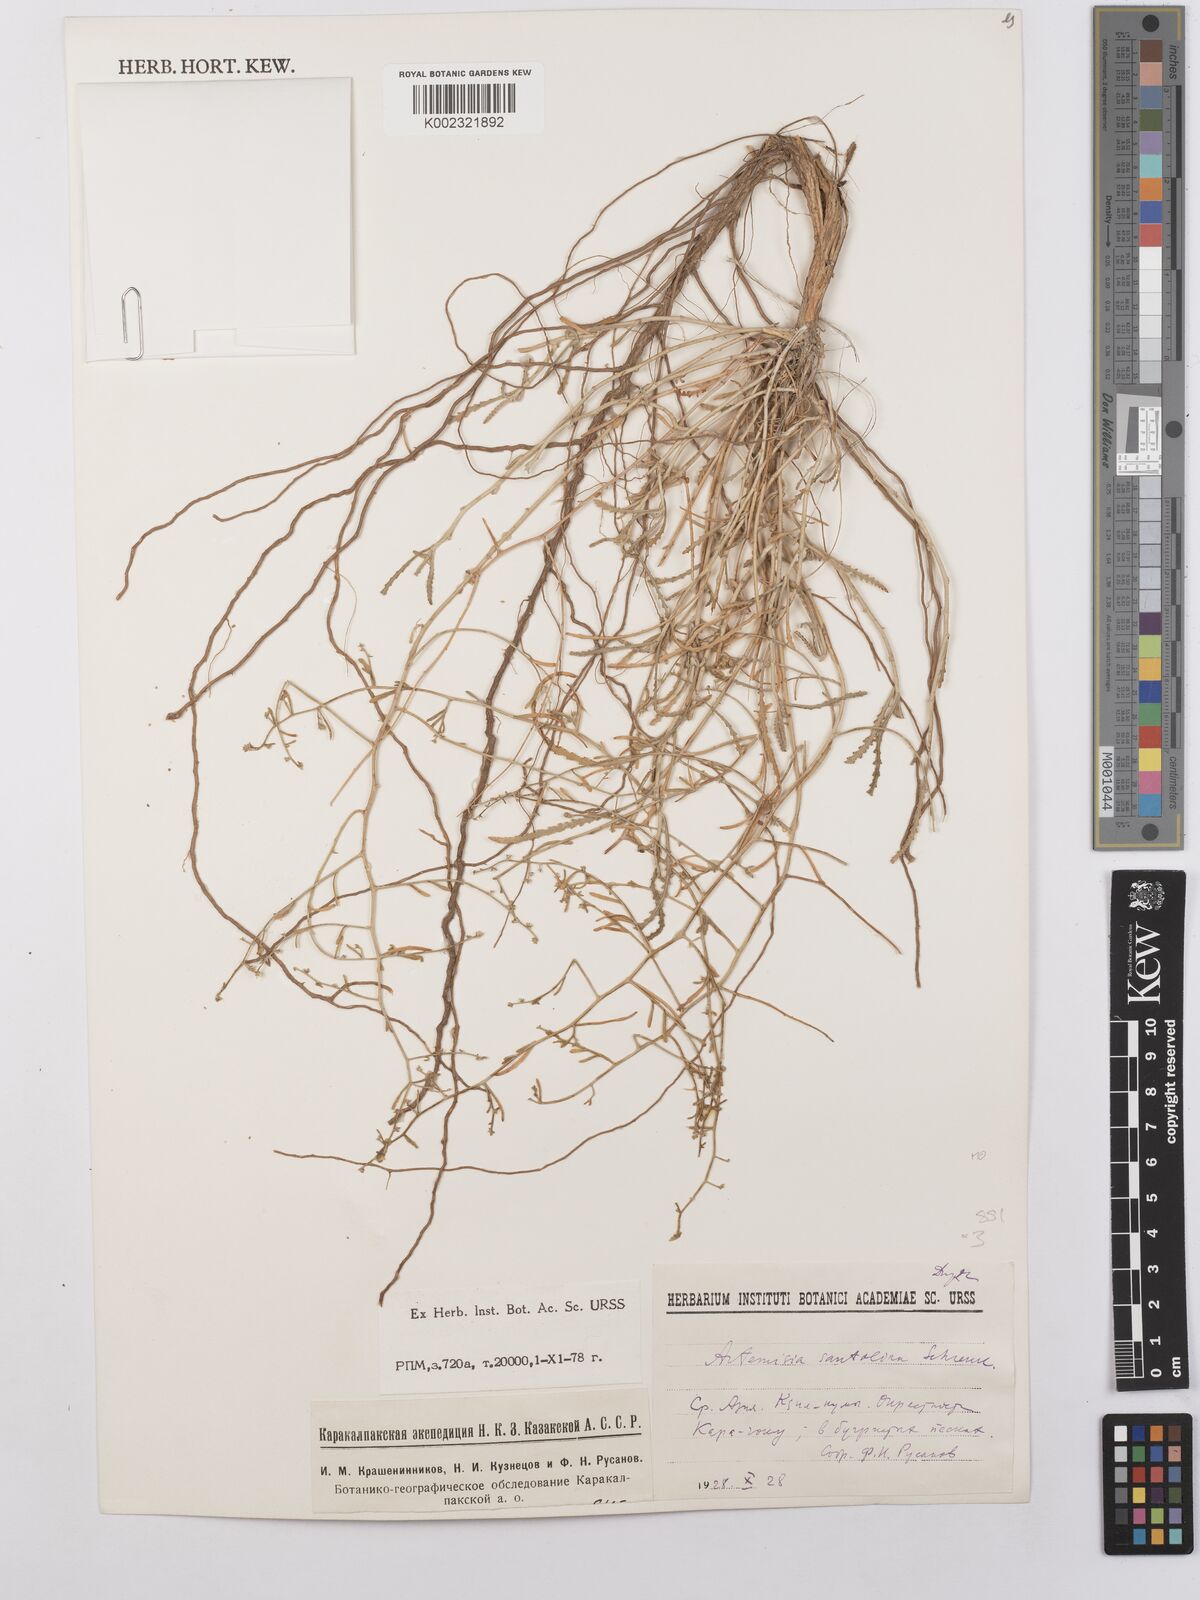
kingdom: Plantae
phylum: Tracheophyta
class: Magnoliopsida
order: Asterales
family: Asteraceae
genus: Artemisia
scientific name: Artemisia santolina
